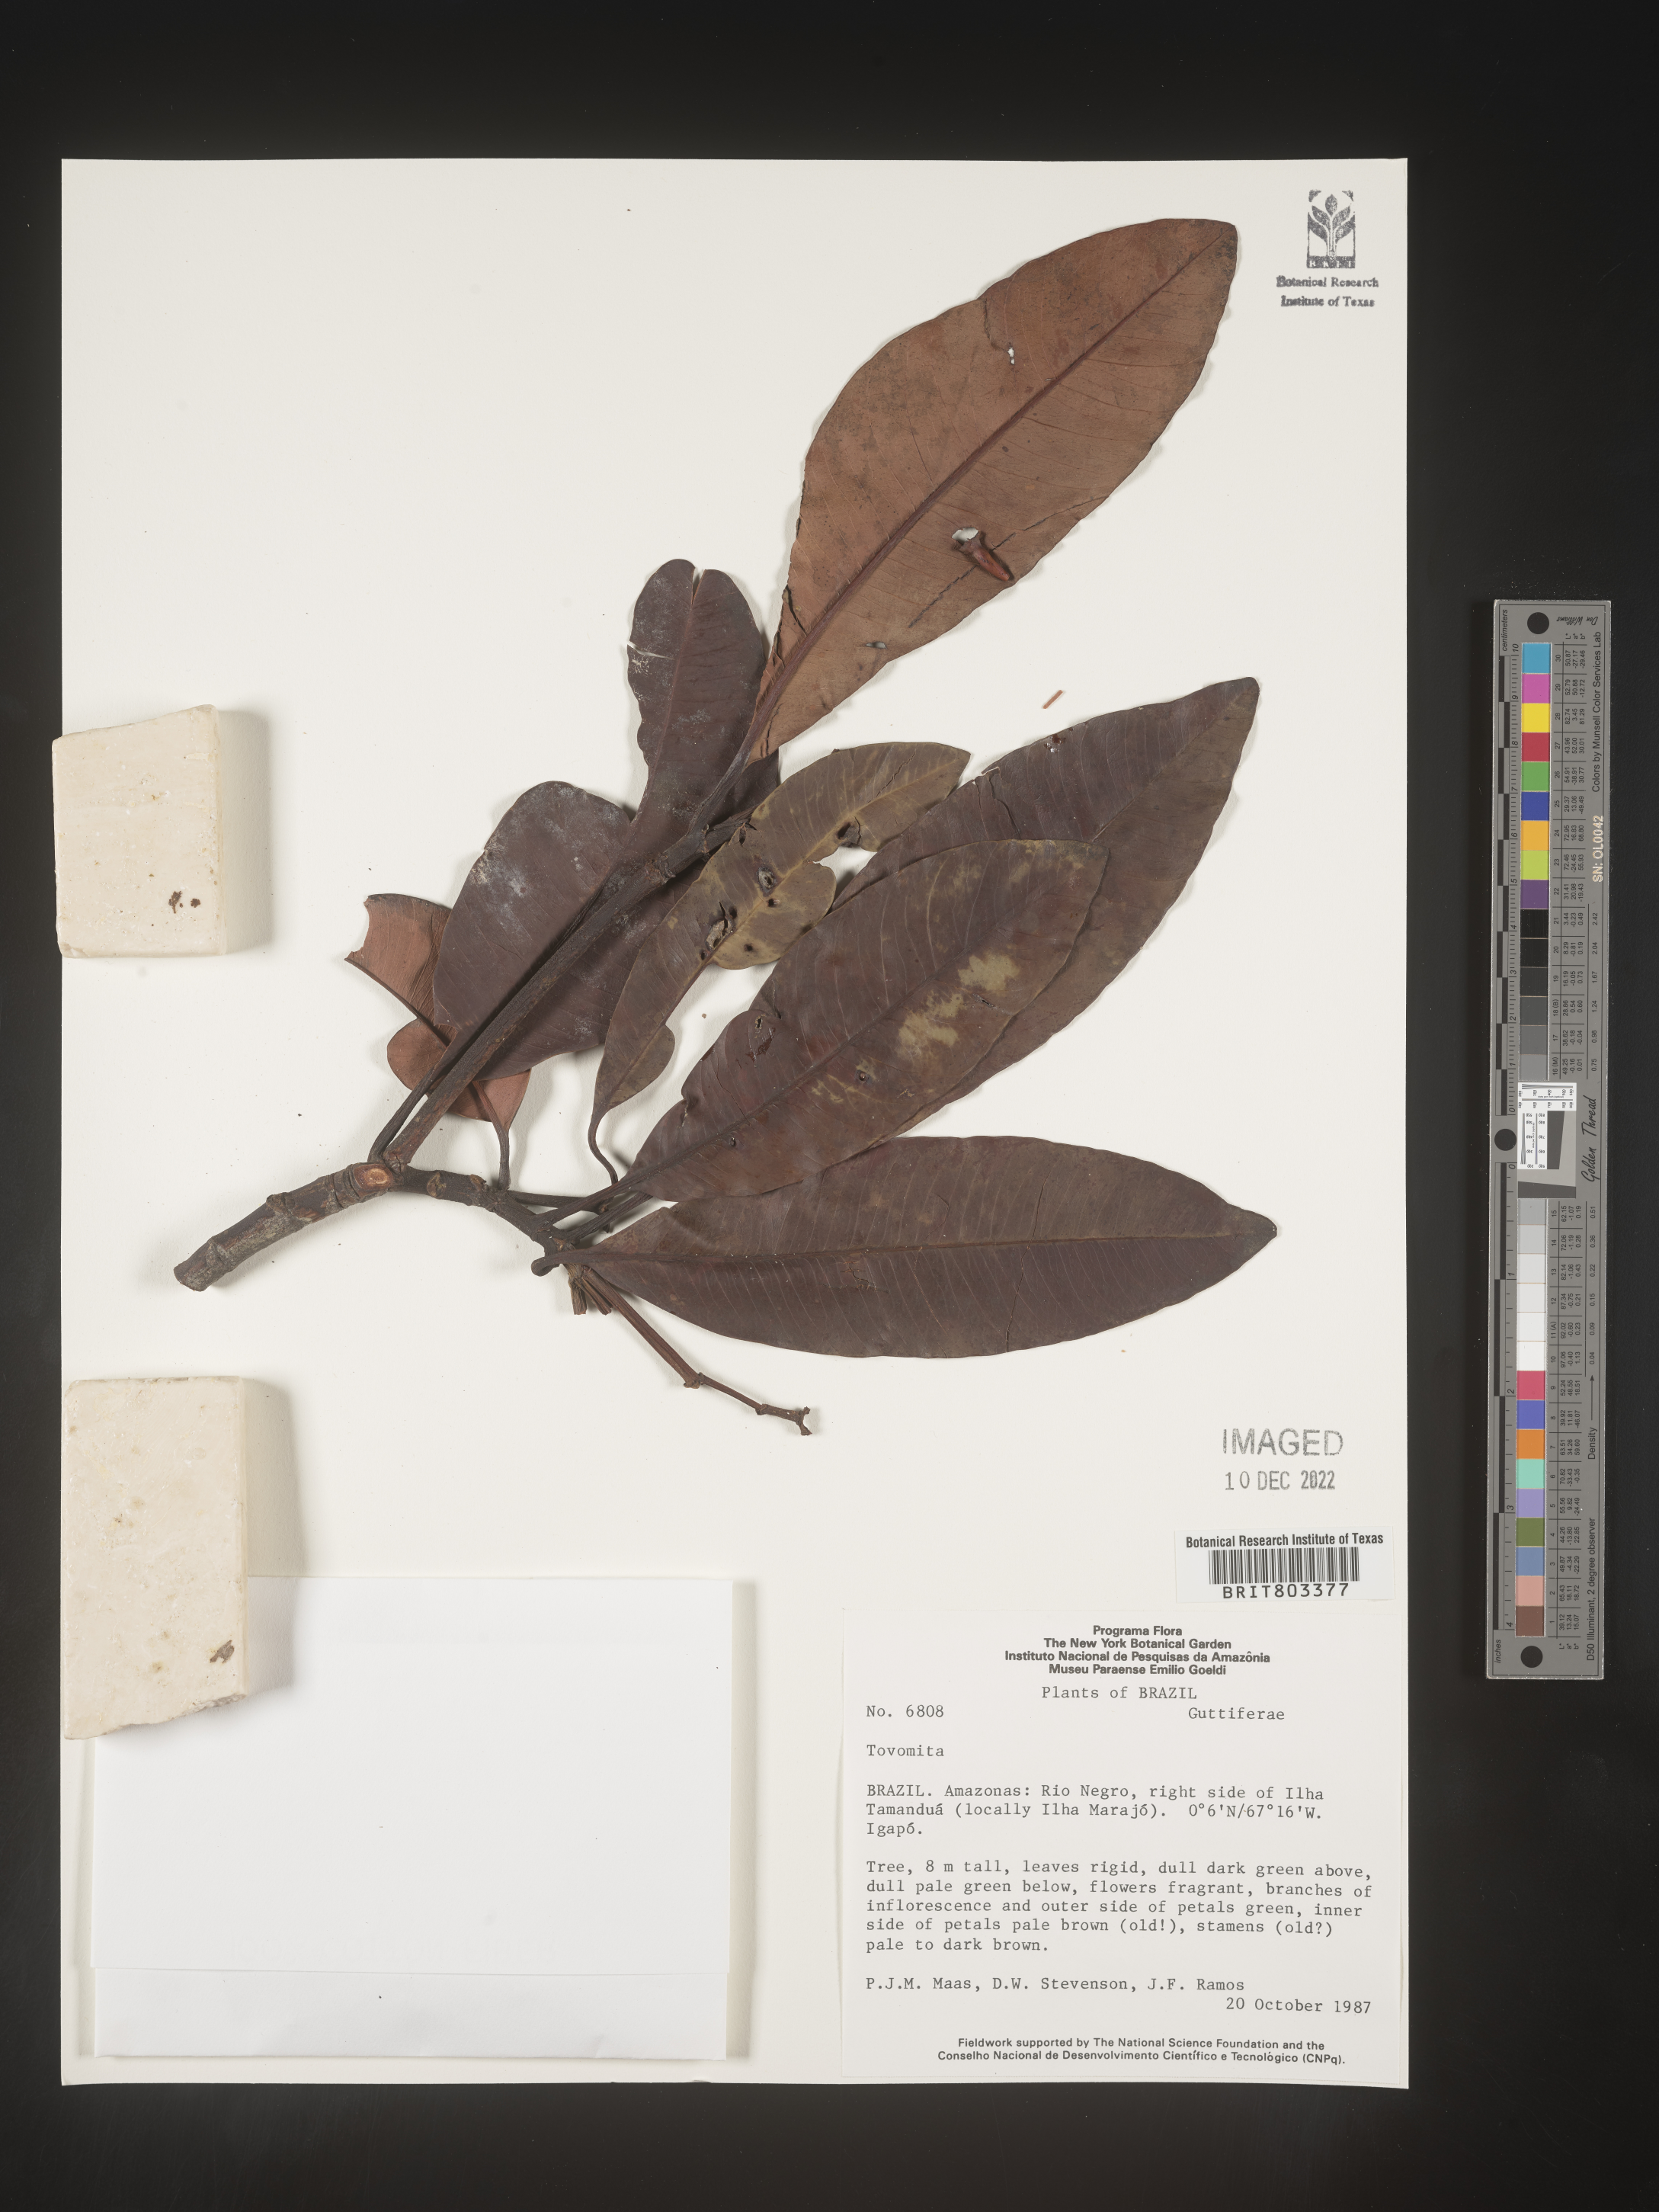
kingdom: Plantae
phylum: Tracheophyta
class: Magnoliopsida
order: Malpighiales
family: Clusiaceae
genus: Tovomita
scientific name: Tovomita
